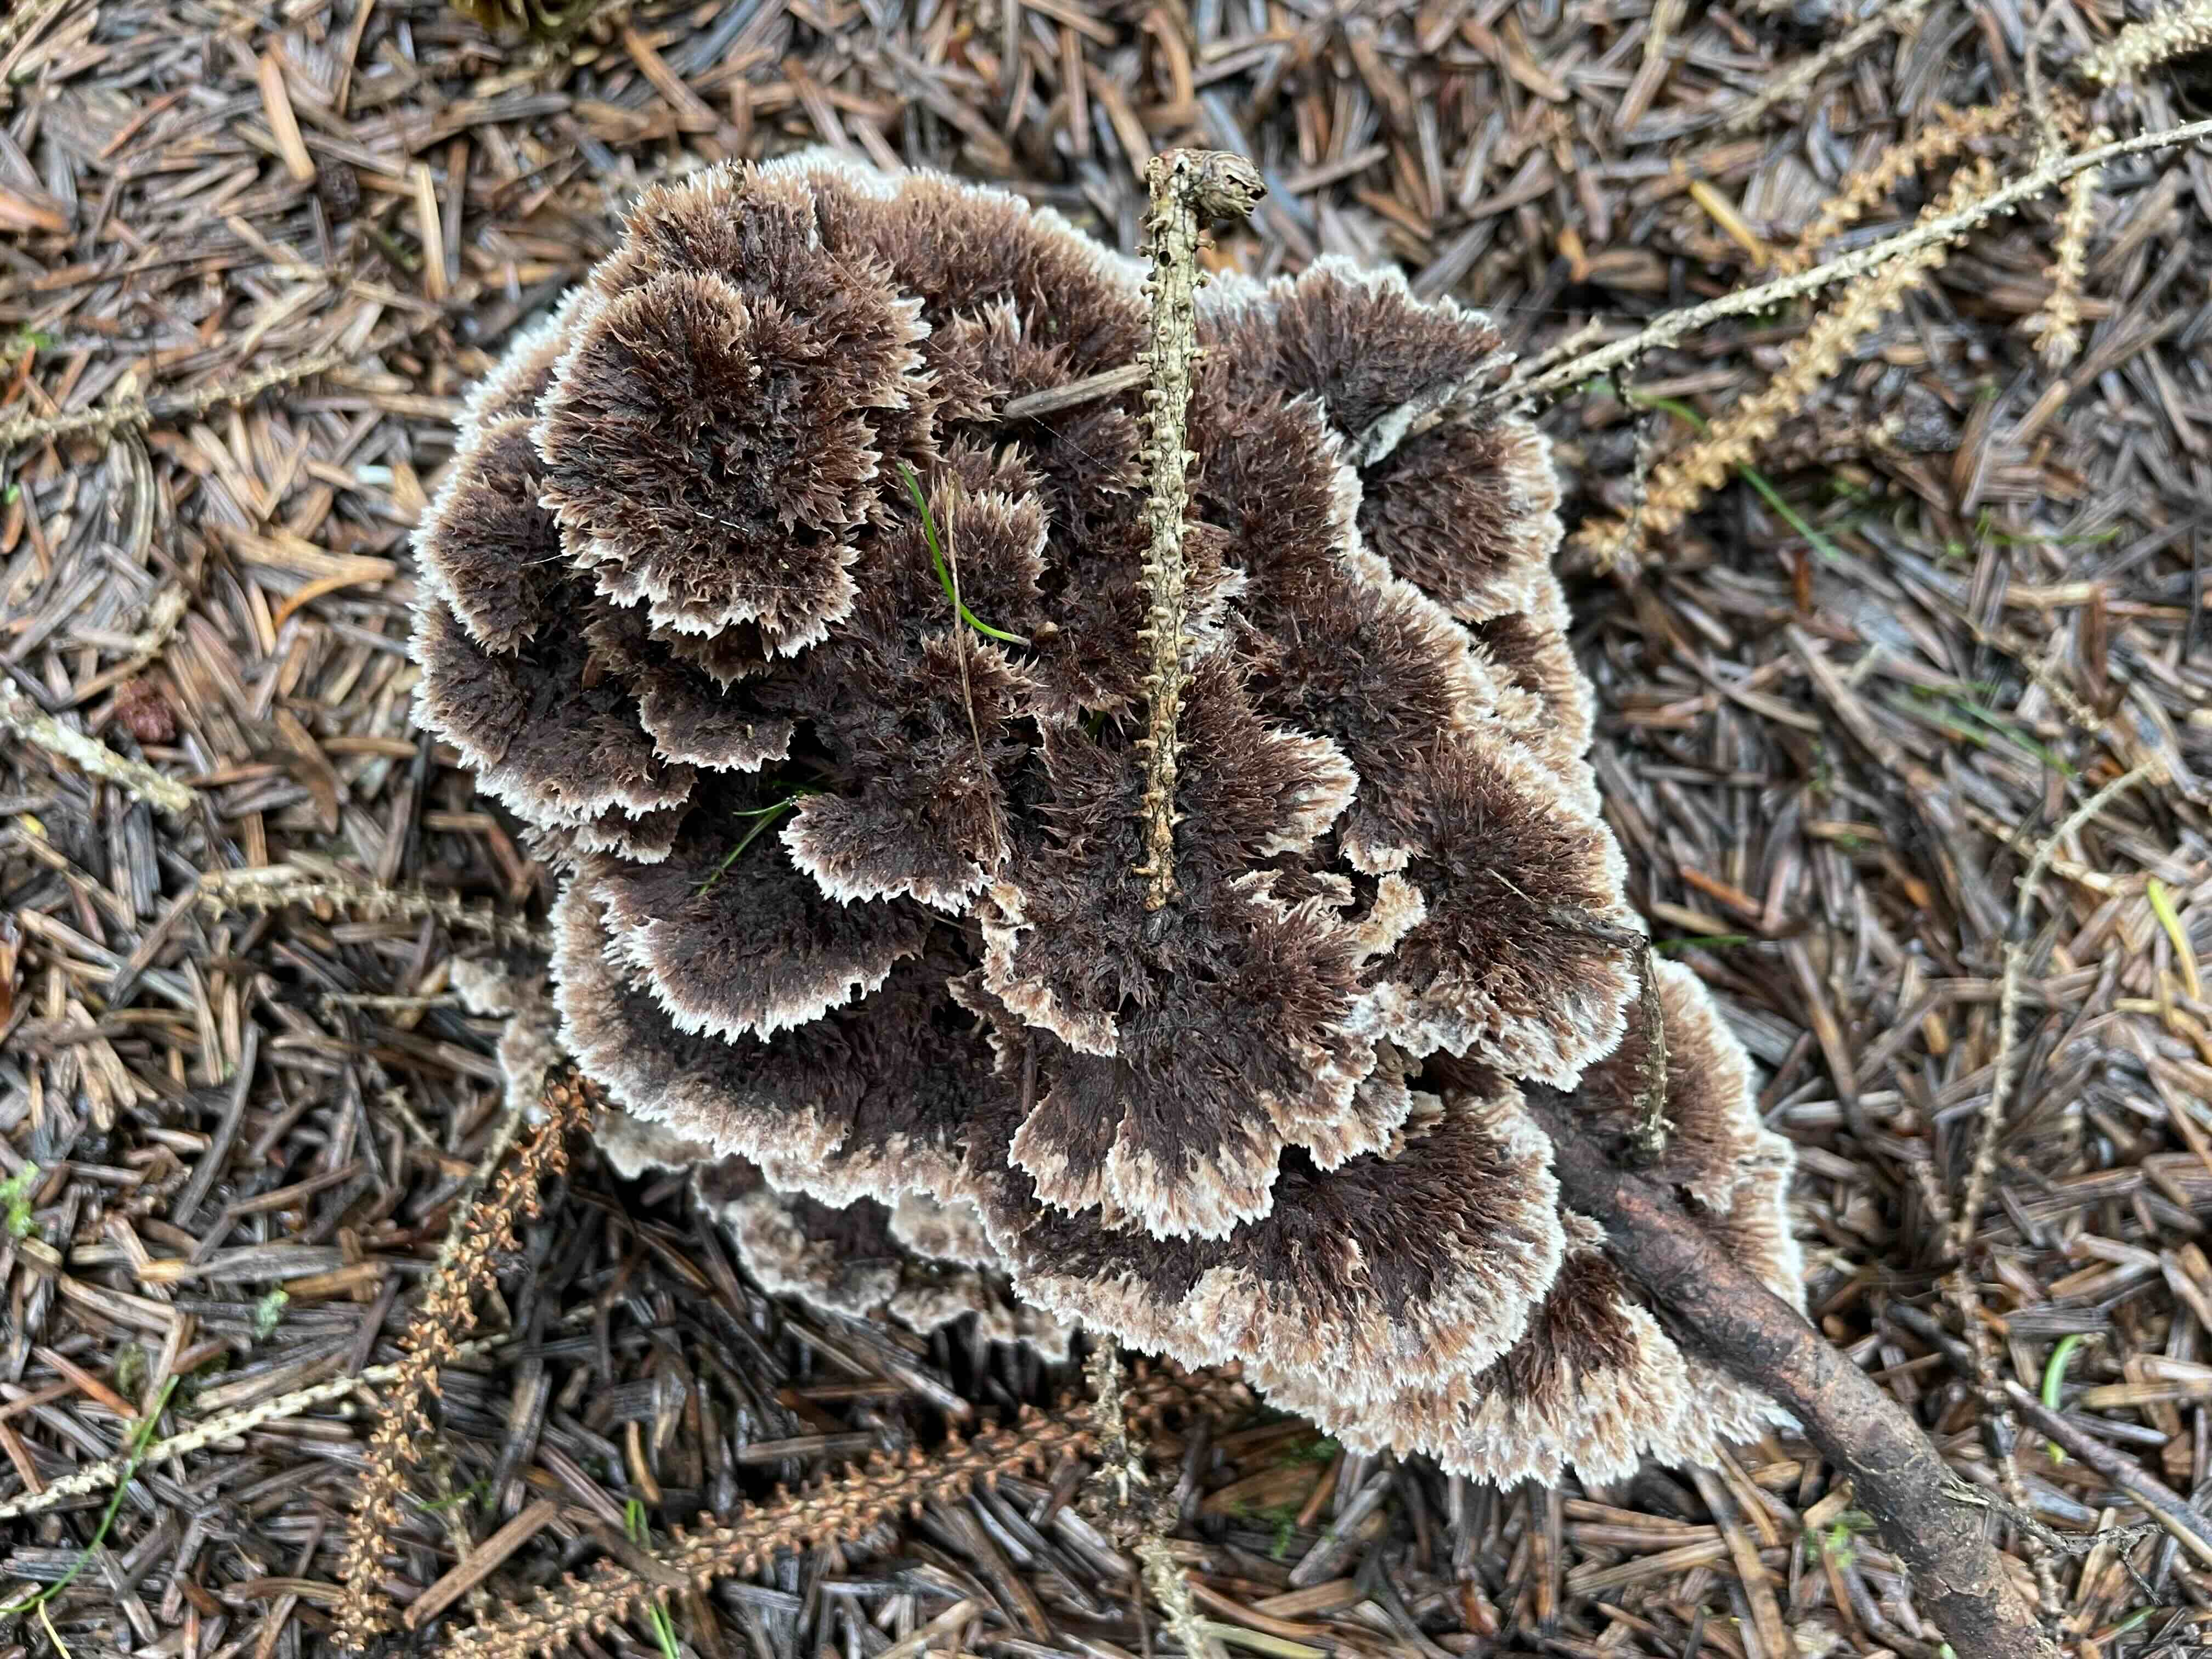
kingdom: Fungi
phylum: Basidiomycota
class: Agaricomycetes
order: Thelephorales
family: Thelephoraceae
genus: Thelephora
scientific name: Thelephora terrestris
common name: fliget frynsesvamp
